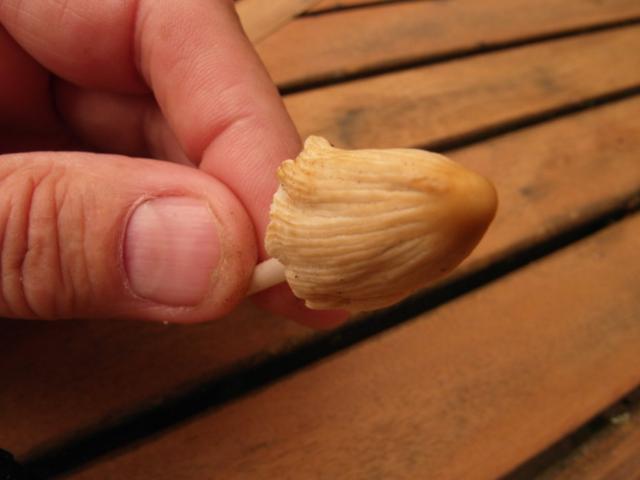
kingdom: Fungi
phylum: Basidiomycota
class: Agaricomycetes
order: Agaricales
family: Psathyrellaceae
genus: Coprinellus
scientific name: Coprinellus xanthothrix
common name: gultrådet blækhat
